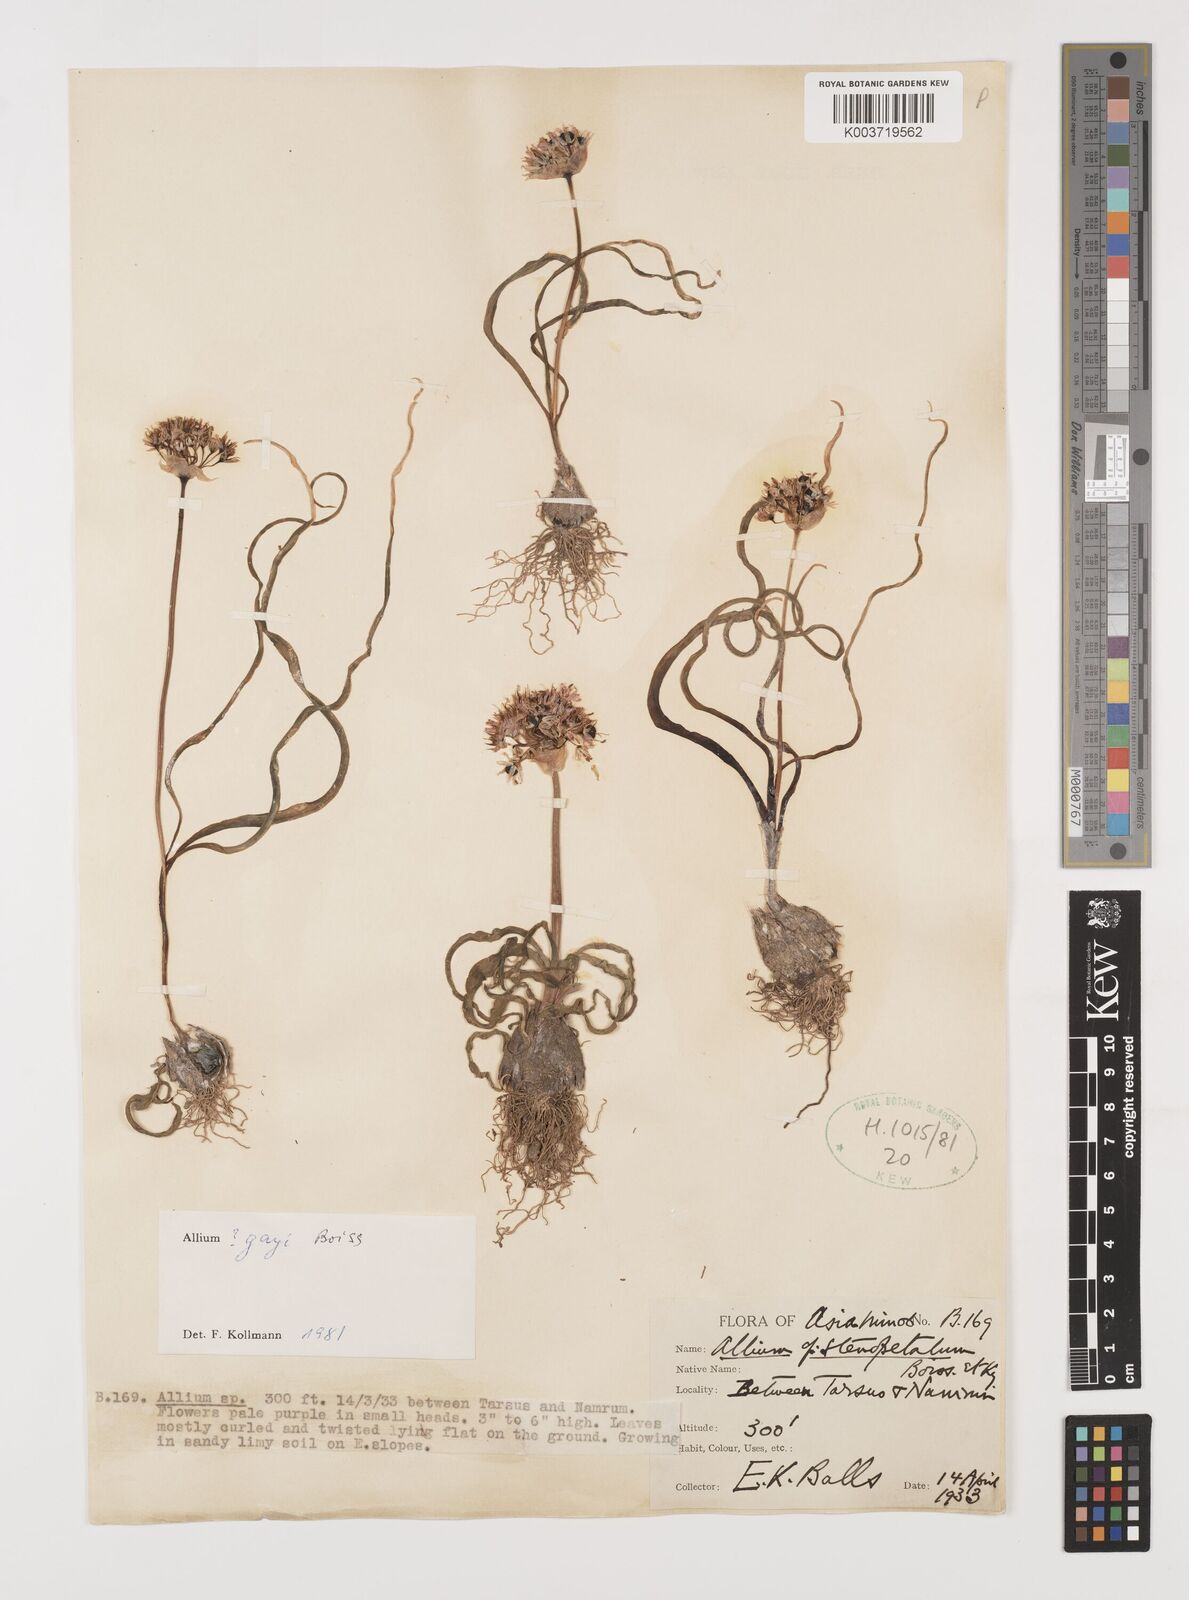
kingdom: Plantae
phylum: Tracheophyta
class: Liliopsida
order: Asparagales
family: Amaryllidaceae
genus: Allium
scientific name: Allium orientale
